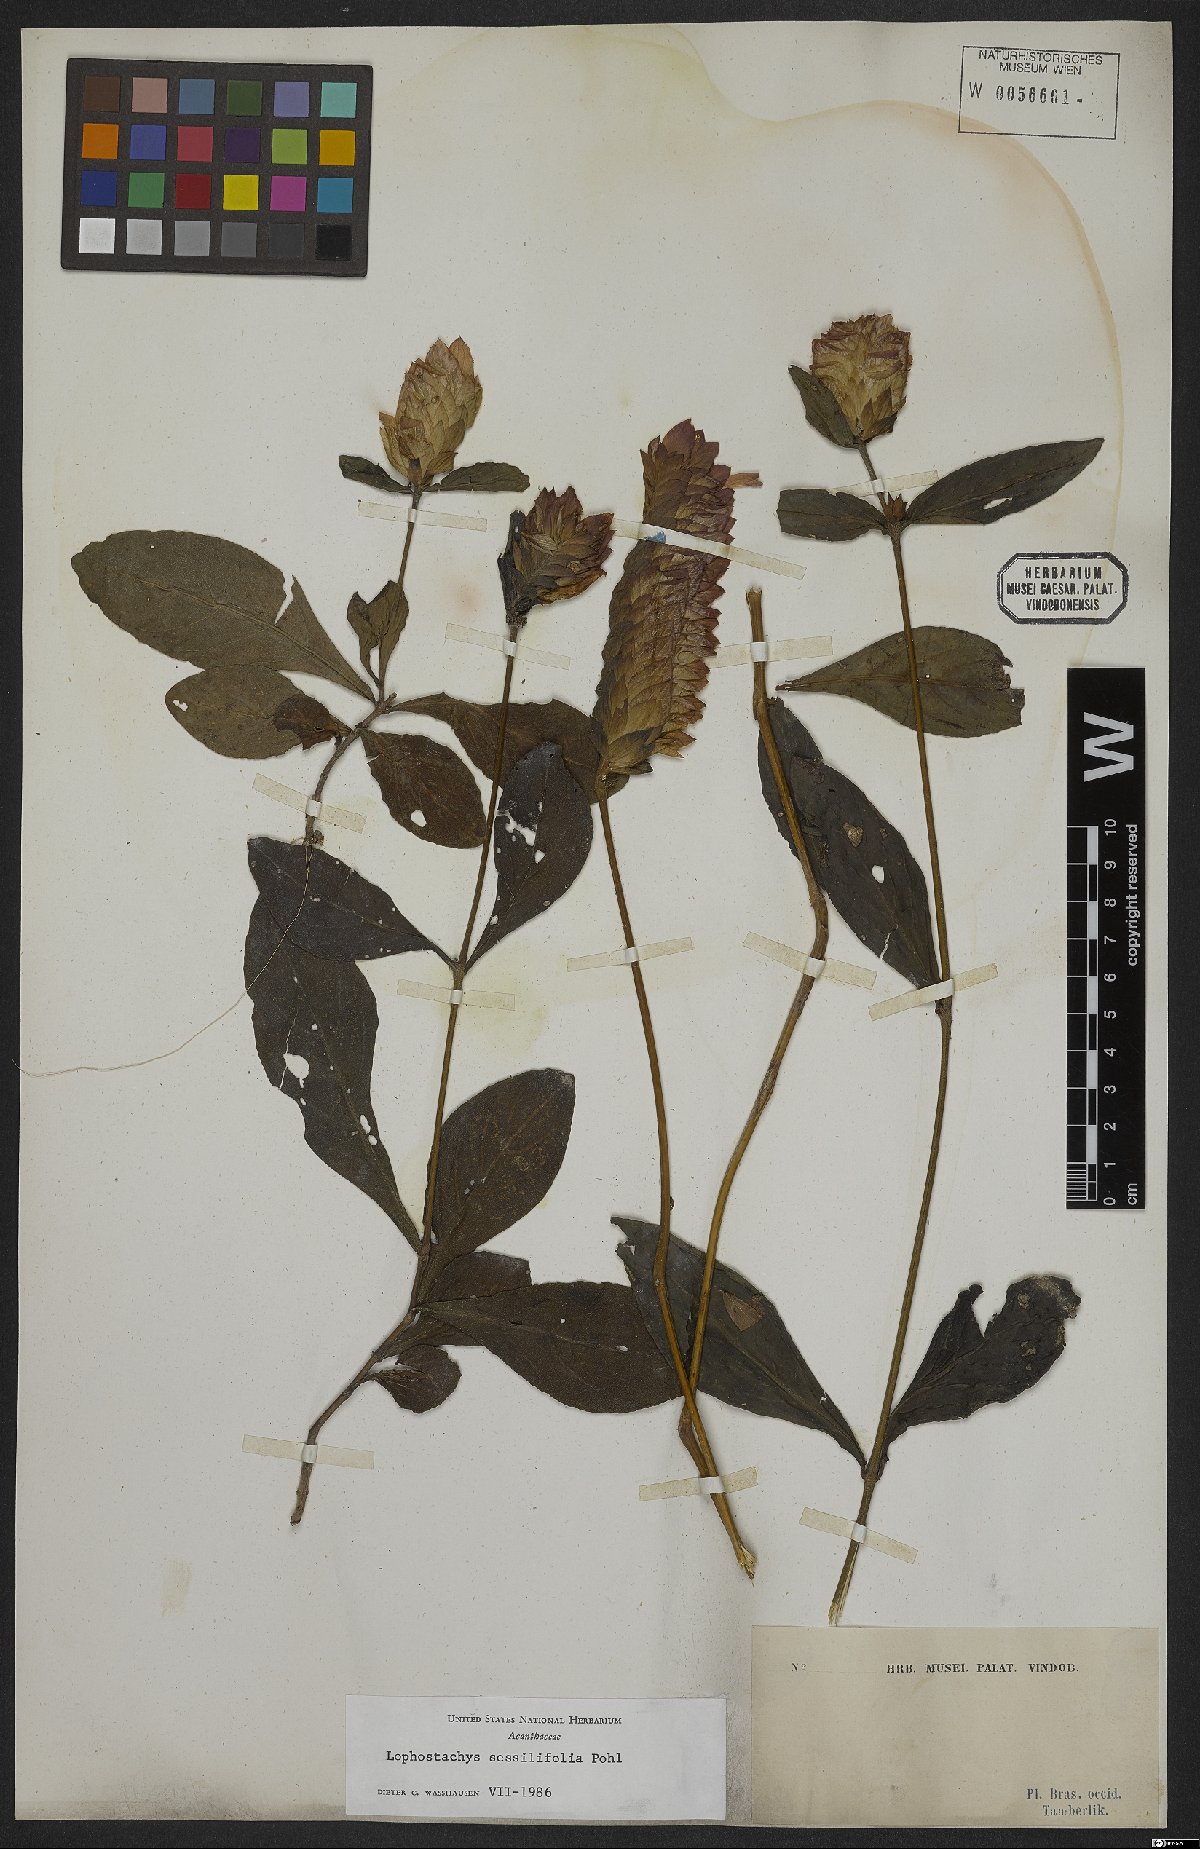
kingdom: Plantae
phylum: Tracheophyta
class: Magnoliopsida
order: Lamiales
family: Acanthaceae
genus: Lepidagathis
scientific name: Lepidagathis sessilifolia
